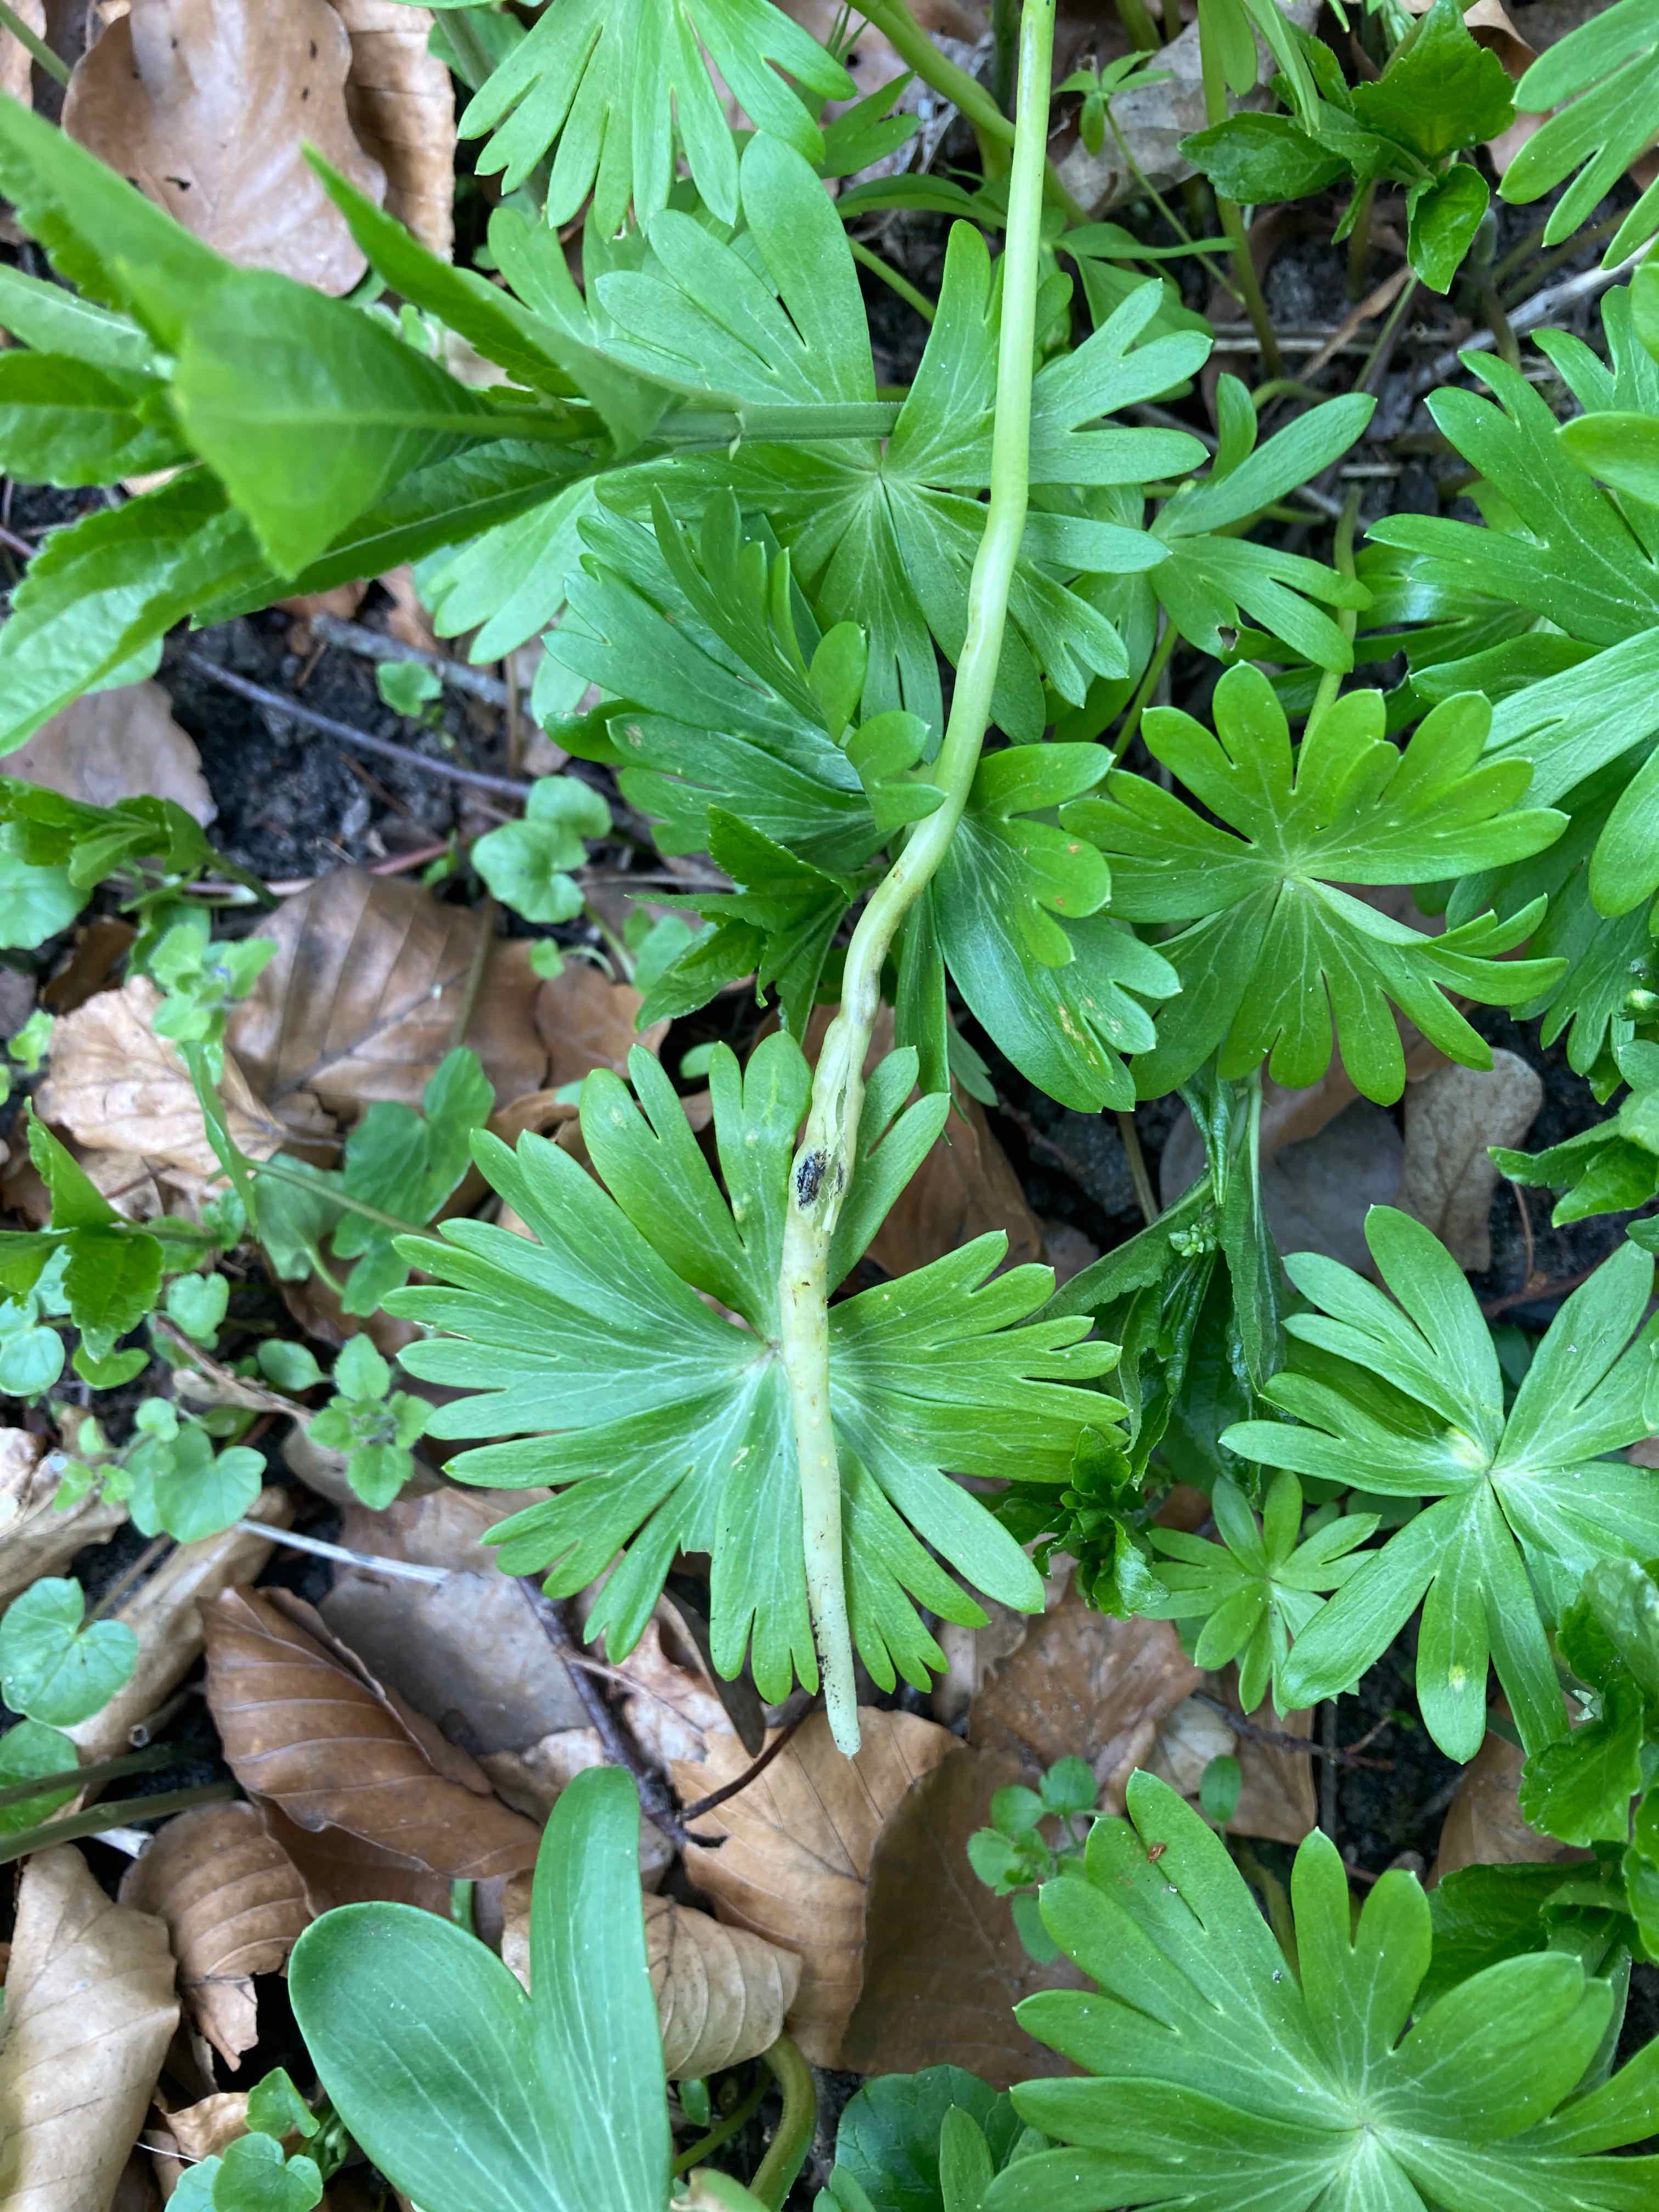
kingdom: Fungi
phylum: Basidiomycota
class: Ustilaginomycetes
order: Urocystidales
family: Urocystidaceae
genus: Urocystis
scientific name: Urocystis eranthidis
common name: erantis-brand
